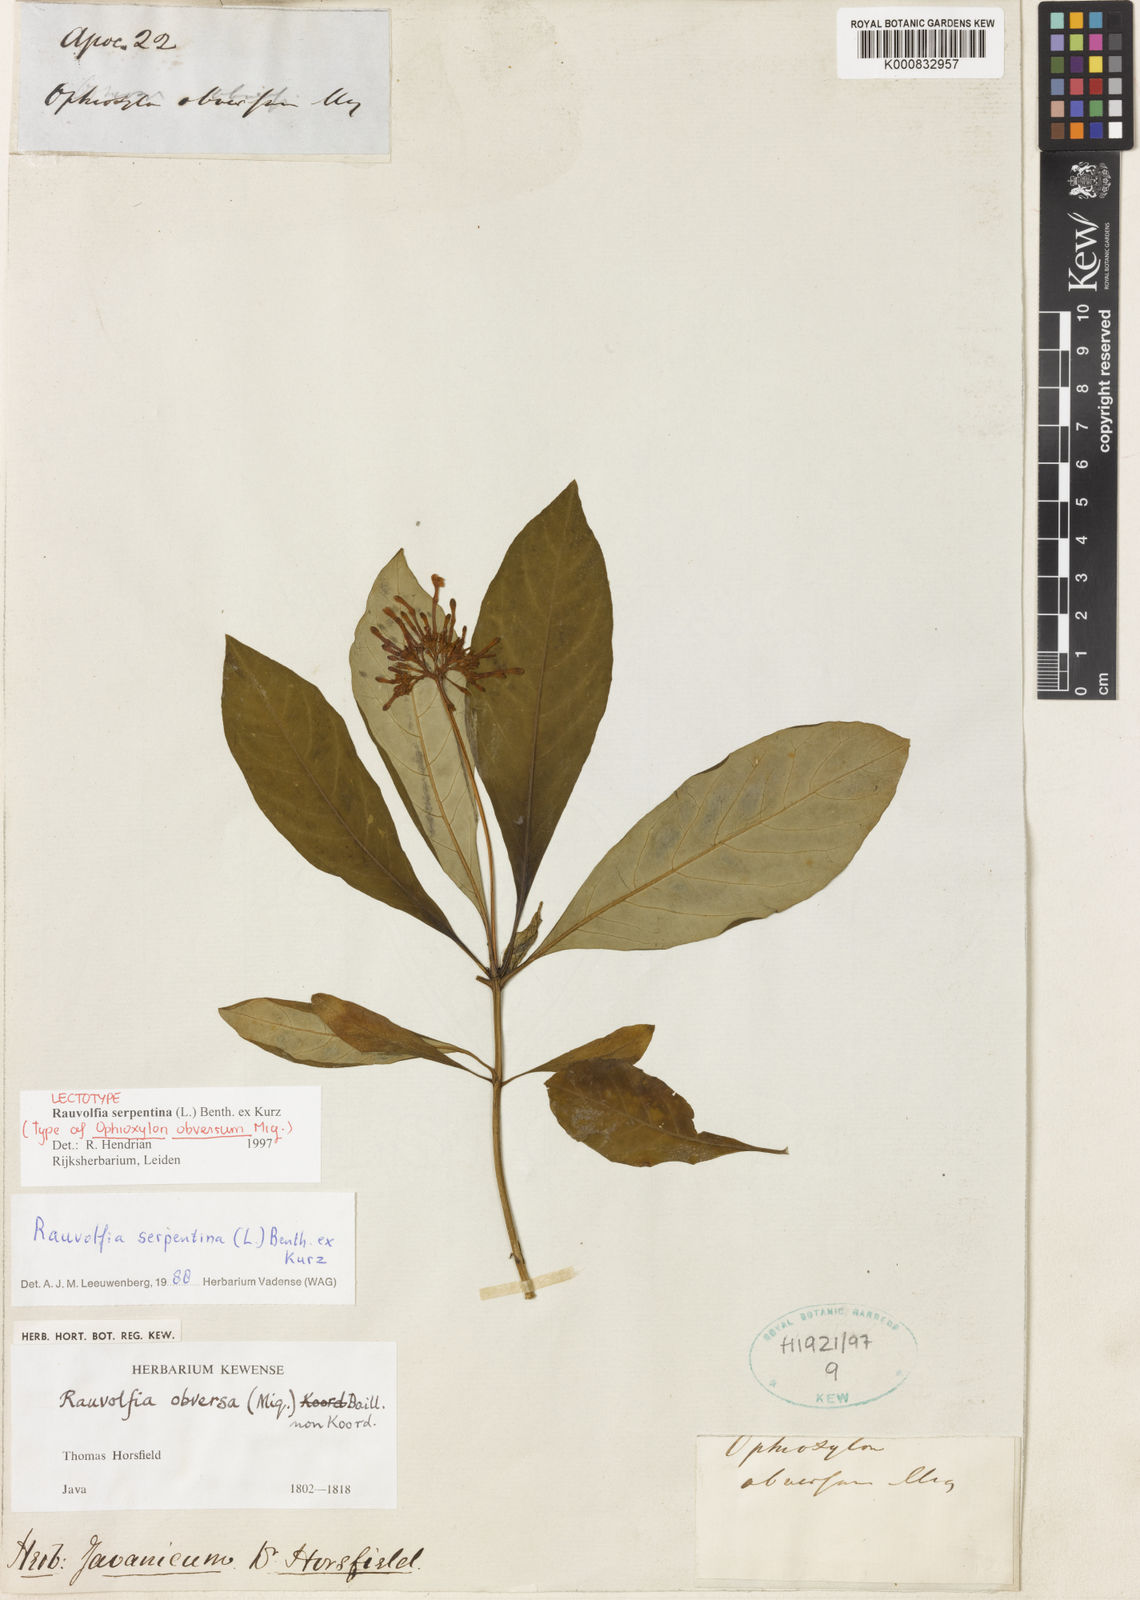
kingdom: Plantae
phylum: Tracheophyta
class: Magnoliopsida
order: Gentianales
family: Apocynaceae
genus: Rauvolfia
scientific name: Rauvolfia serpentina
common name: Ajmaline
